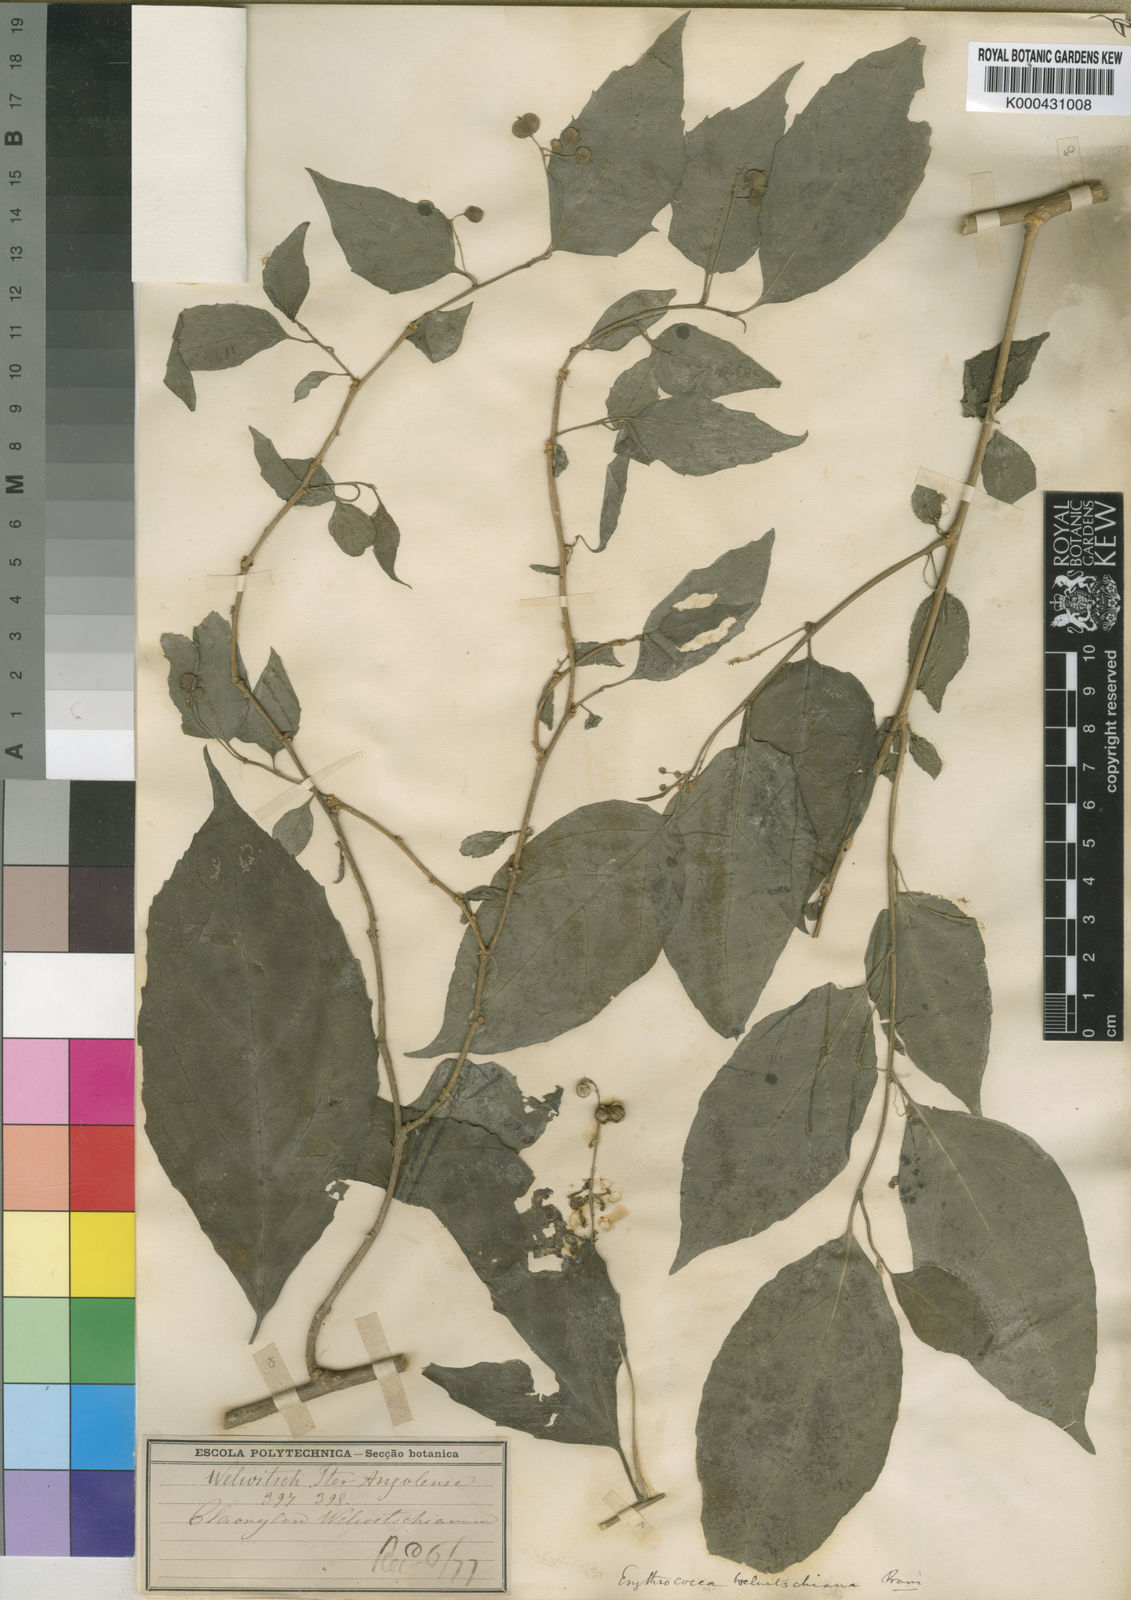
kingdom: Plantae
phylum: Tracheophyta
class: Magnoliopsida
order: Malpighiales
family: Euphorbiaceae
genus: Erythrococca
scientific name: Erythrococca
